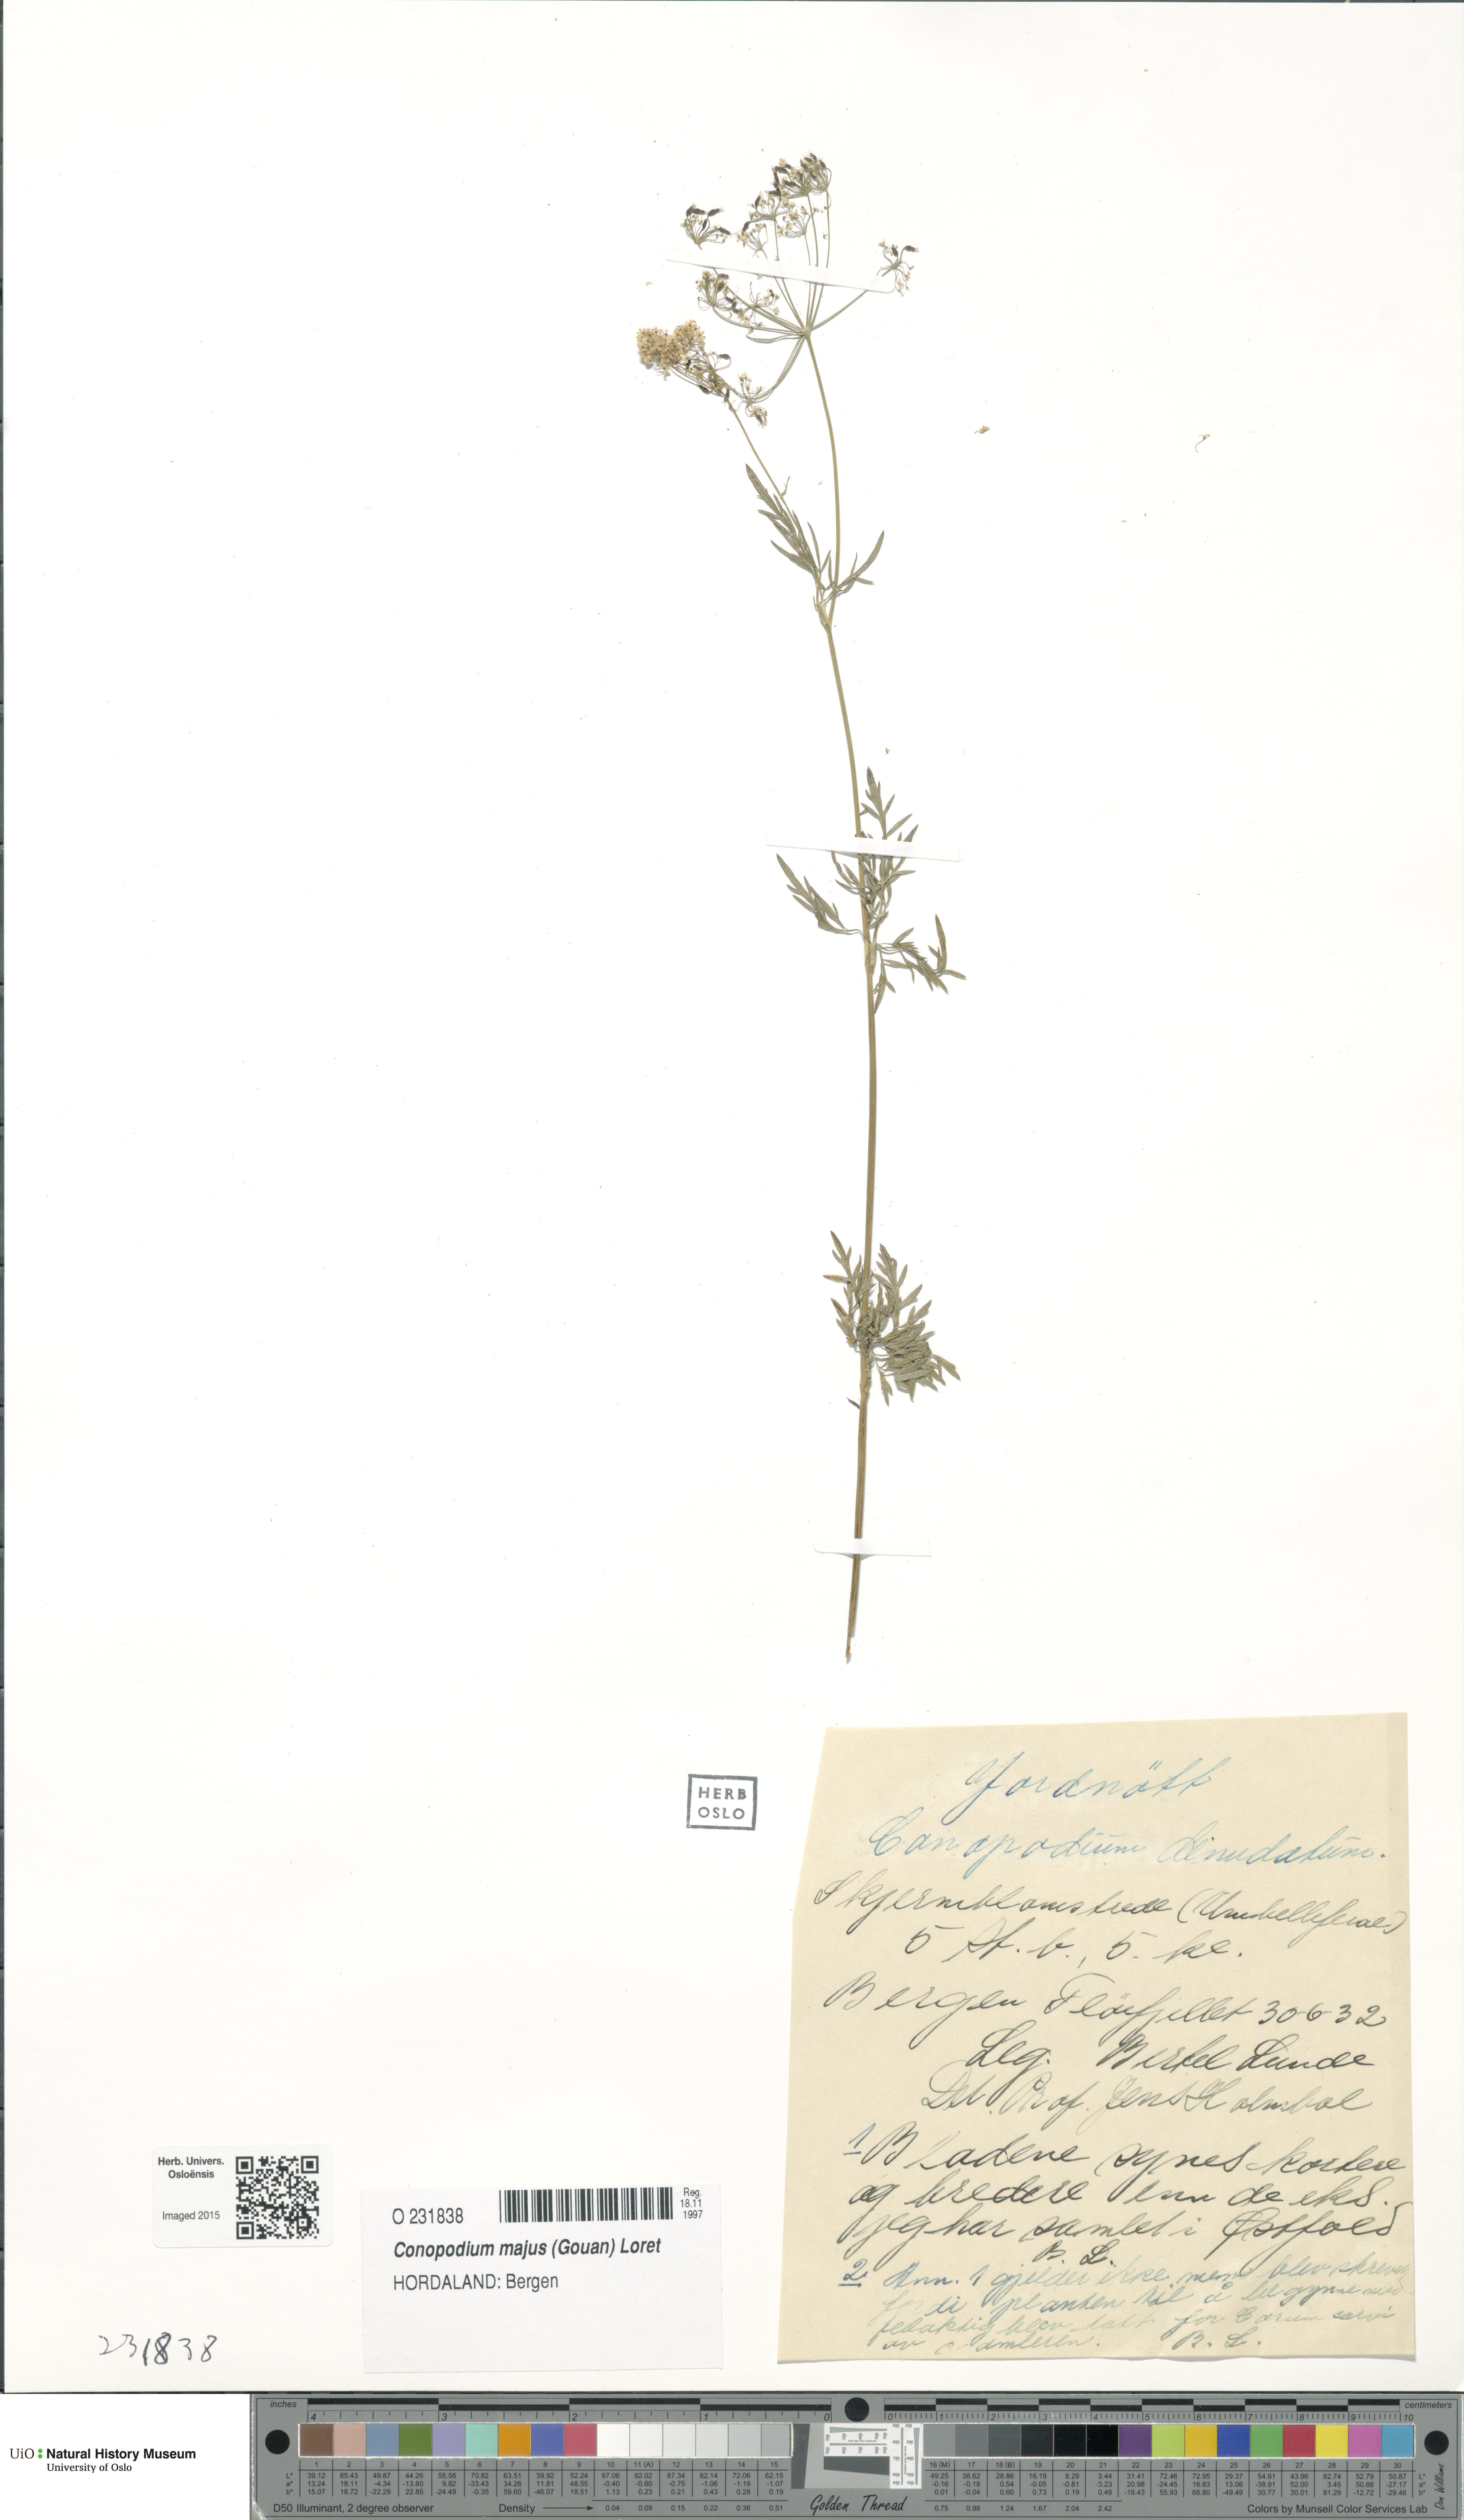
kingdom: Plantae
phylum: Tracheophyta
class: Magnoliopsida
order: Apiales
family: Apiaceae
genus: Conopodium
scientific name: Conopodium majus
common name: Pignut
